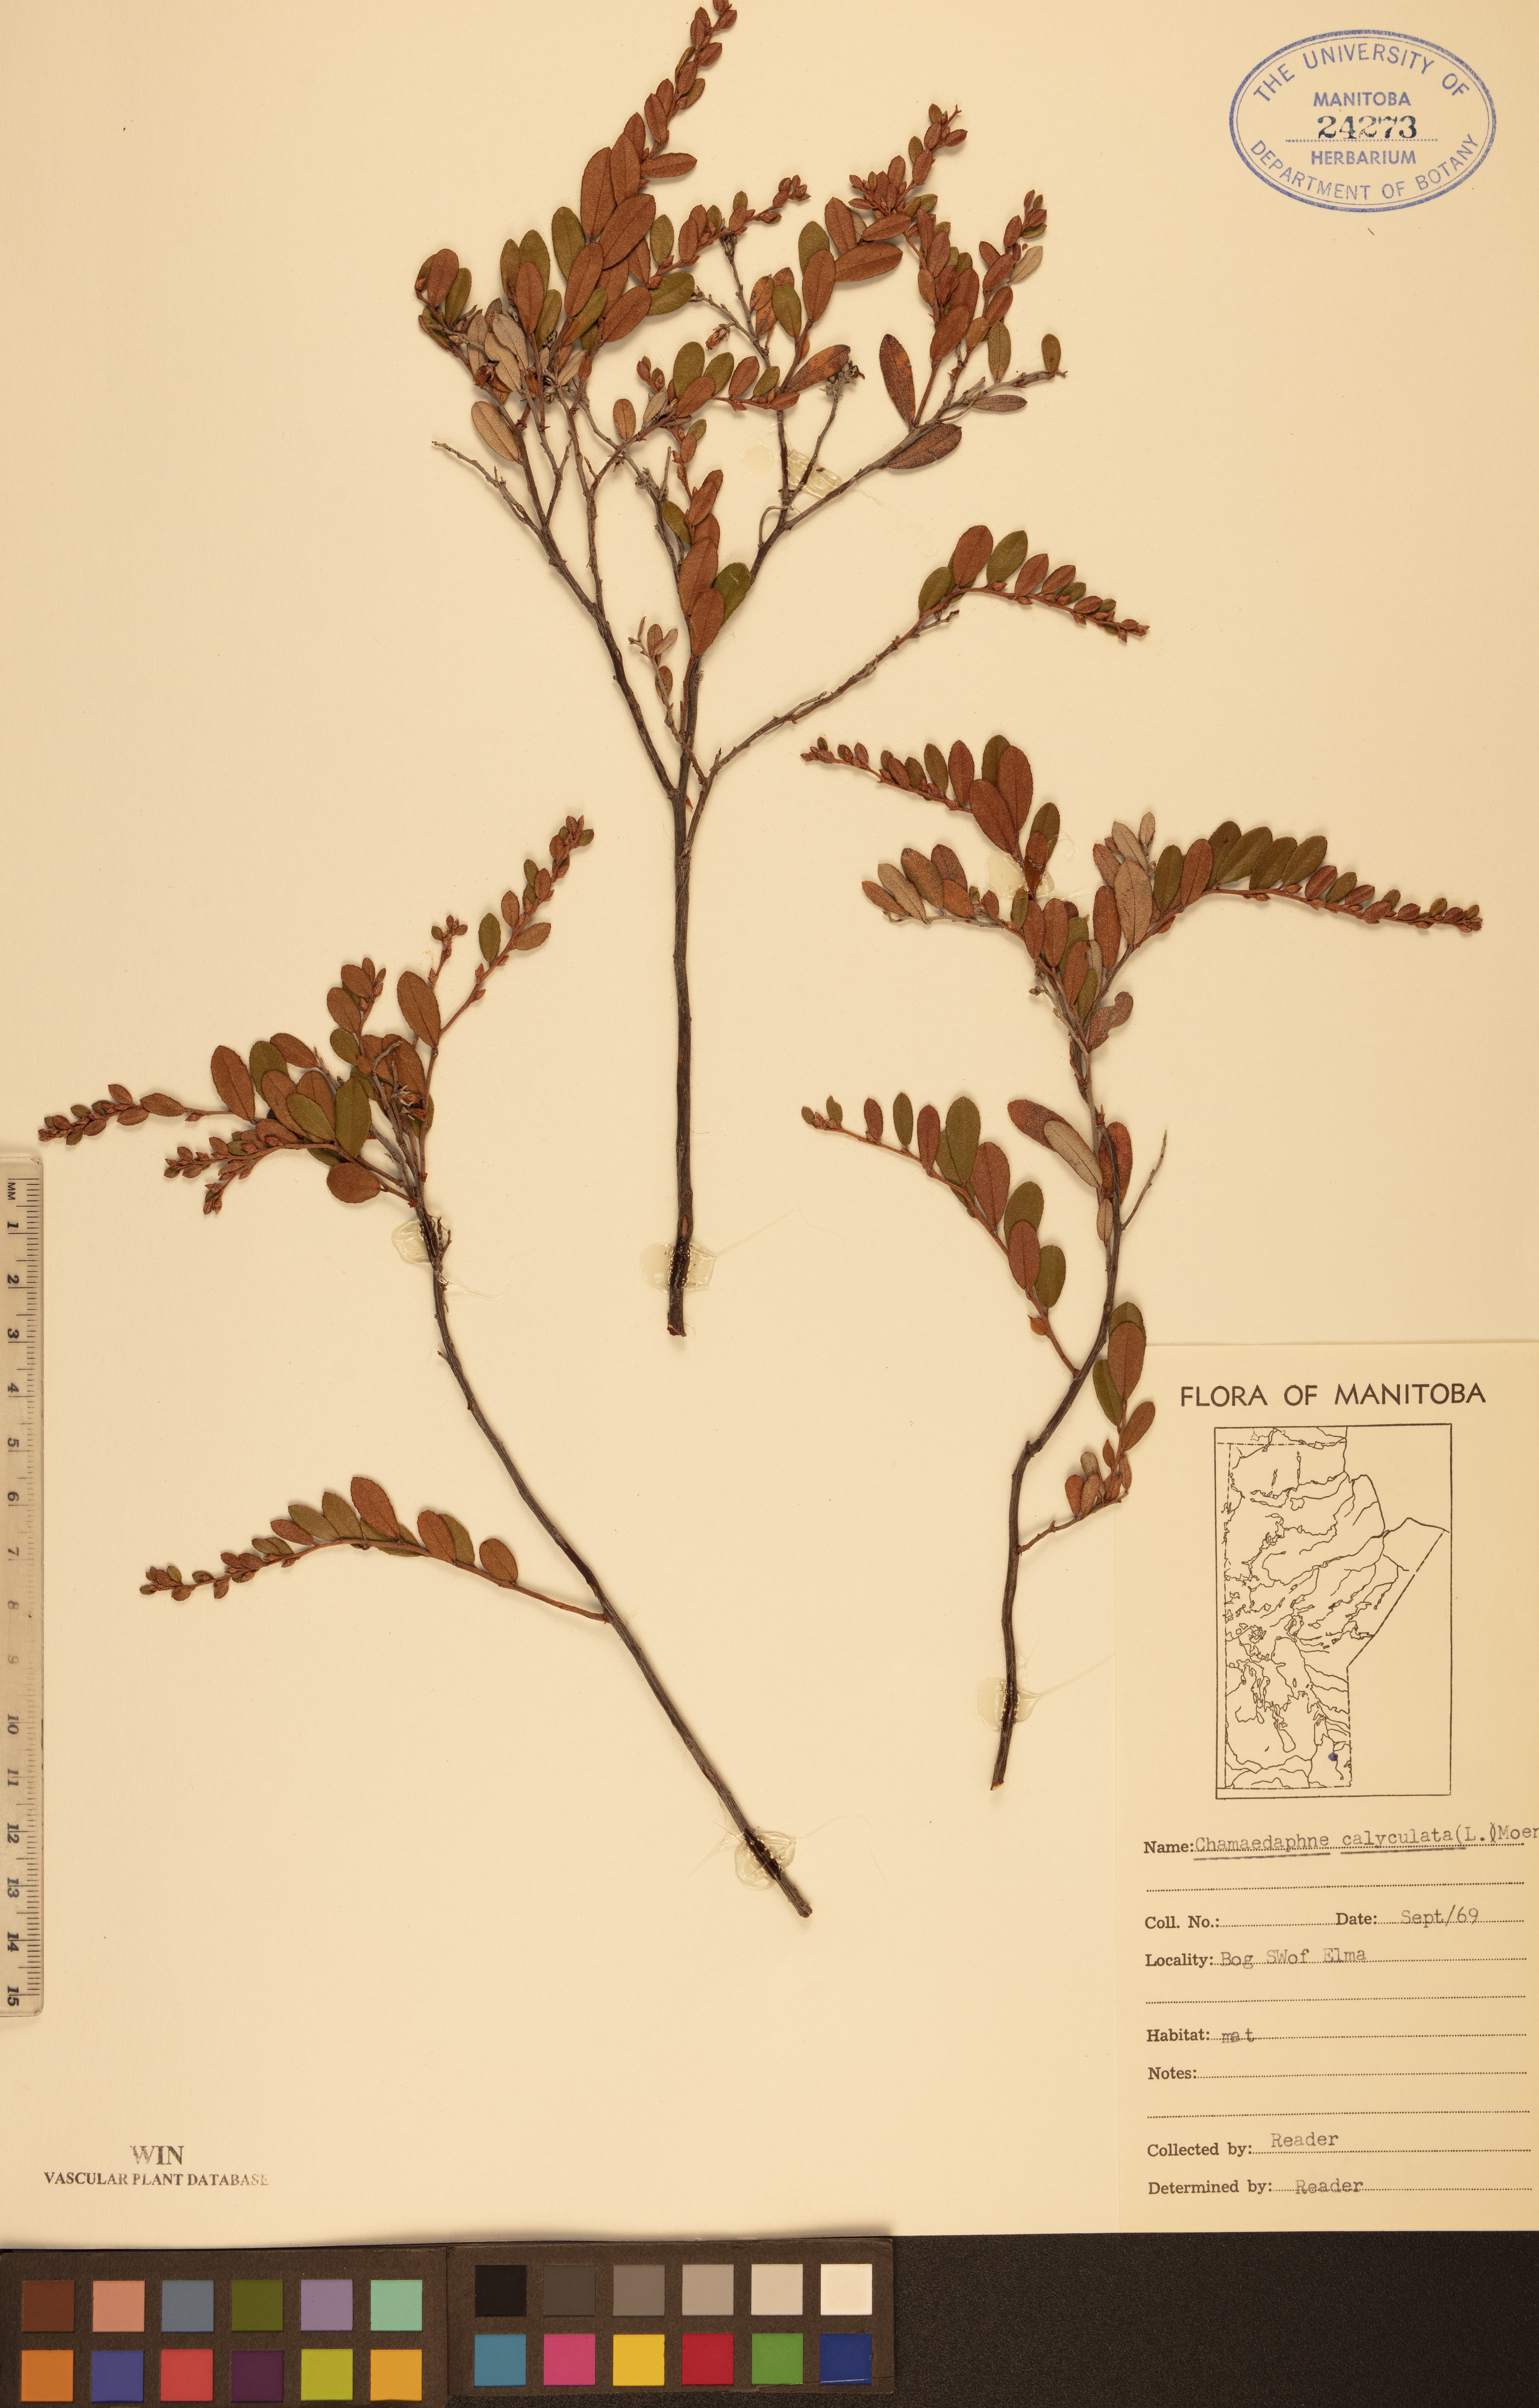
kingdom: Plantae
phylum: Tracheophyta
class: Magnoliopsida
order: Ericales
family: Ericaceae
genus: Chamaedaphne
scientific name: Chamaedaphne calyculata
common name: Leatherleaf
